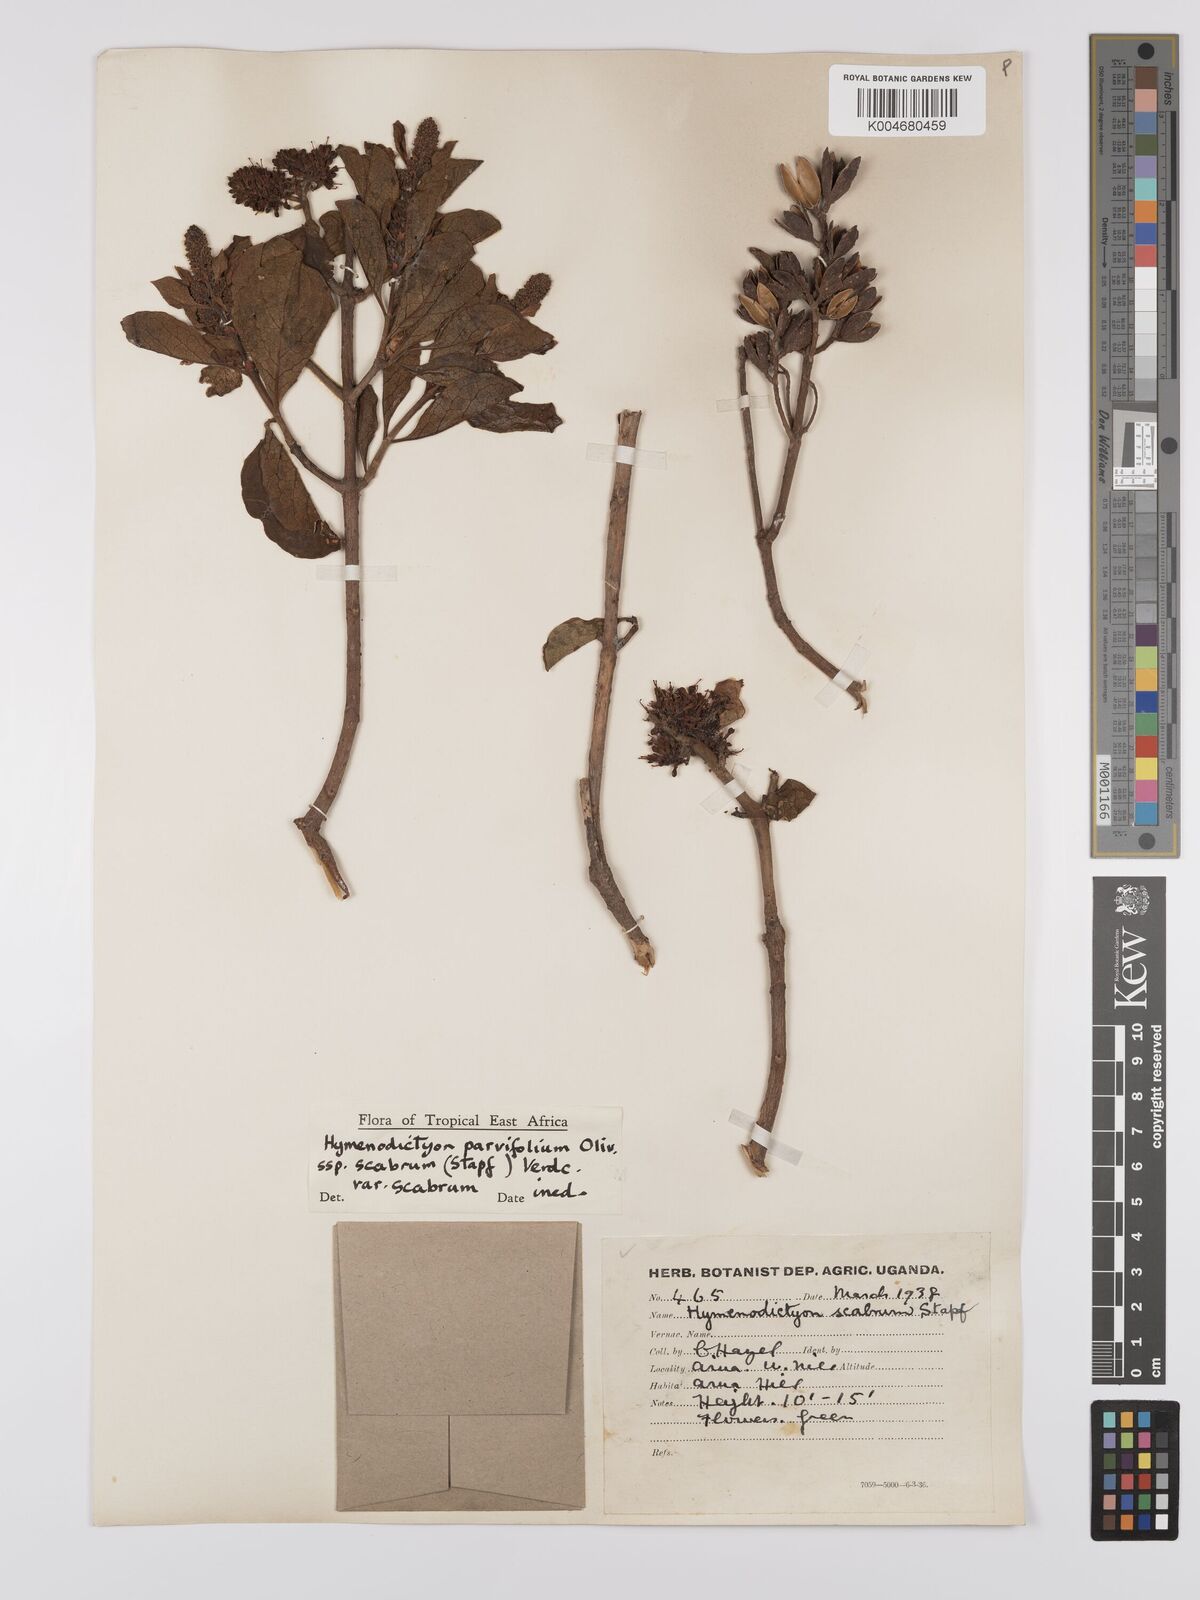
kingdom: Plantae
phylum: Tracheophyta
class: Magnoliopsida
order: Gentianales
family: Rubiaceae
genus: Hymenodictyon
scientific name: Hymenodictyon scabrum
